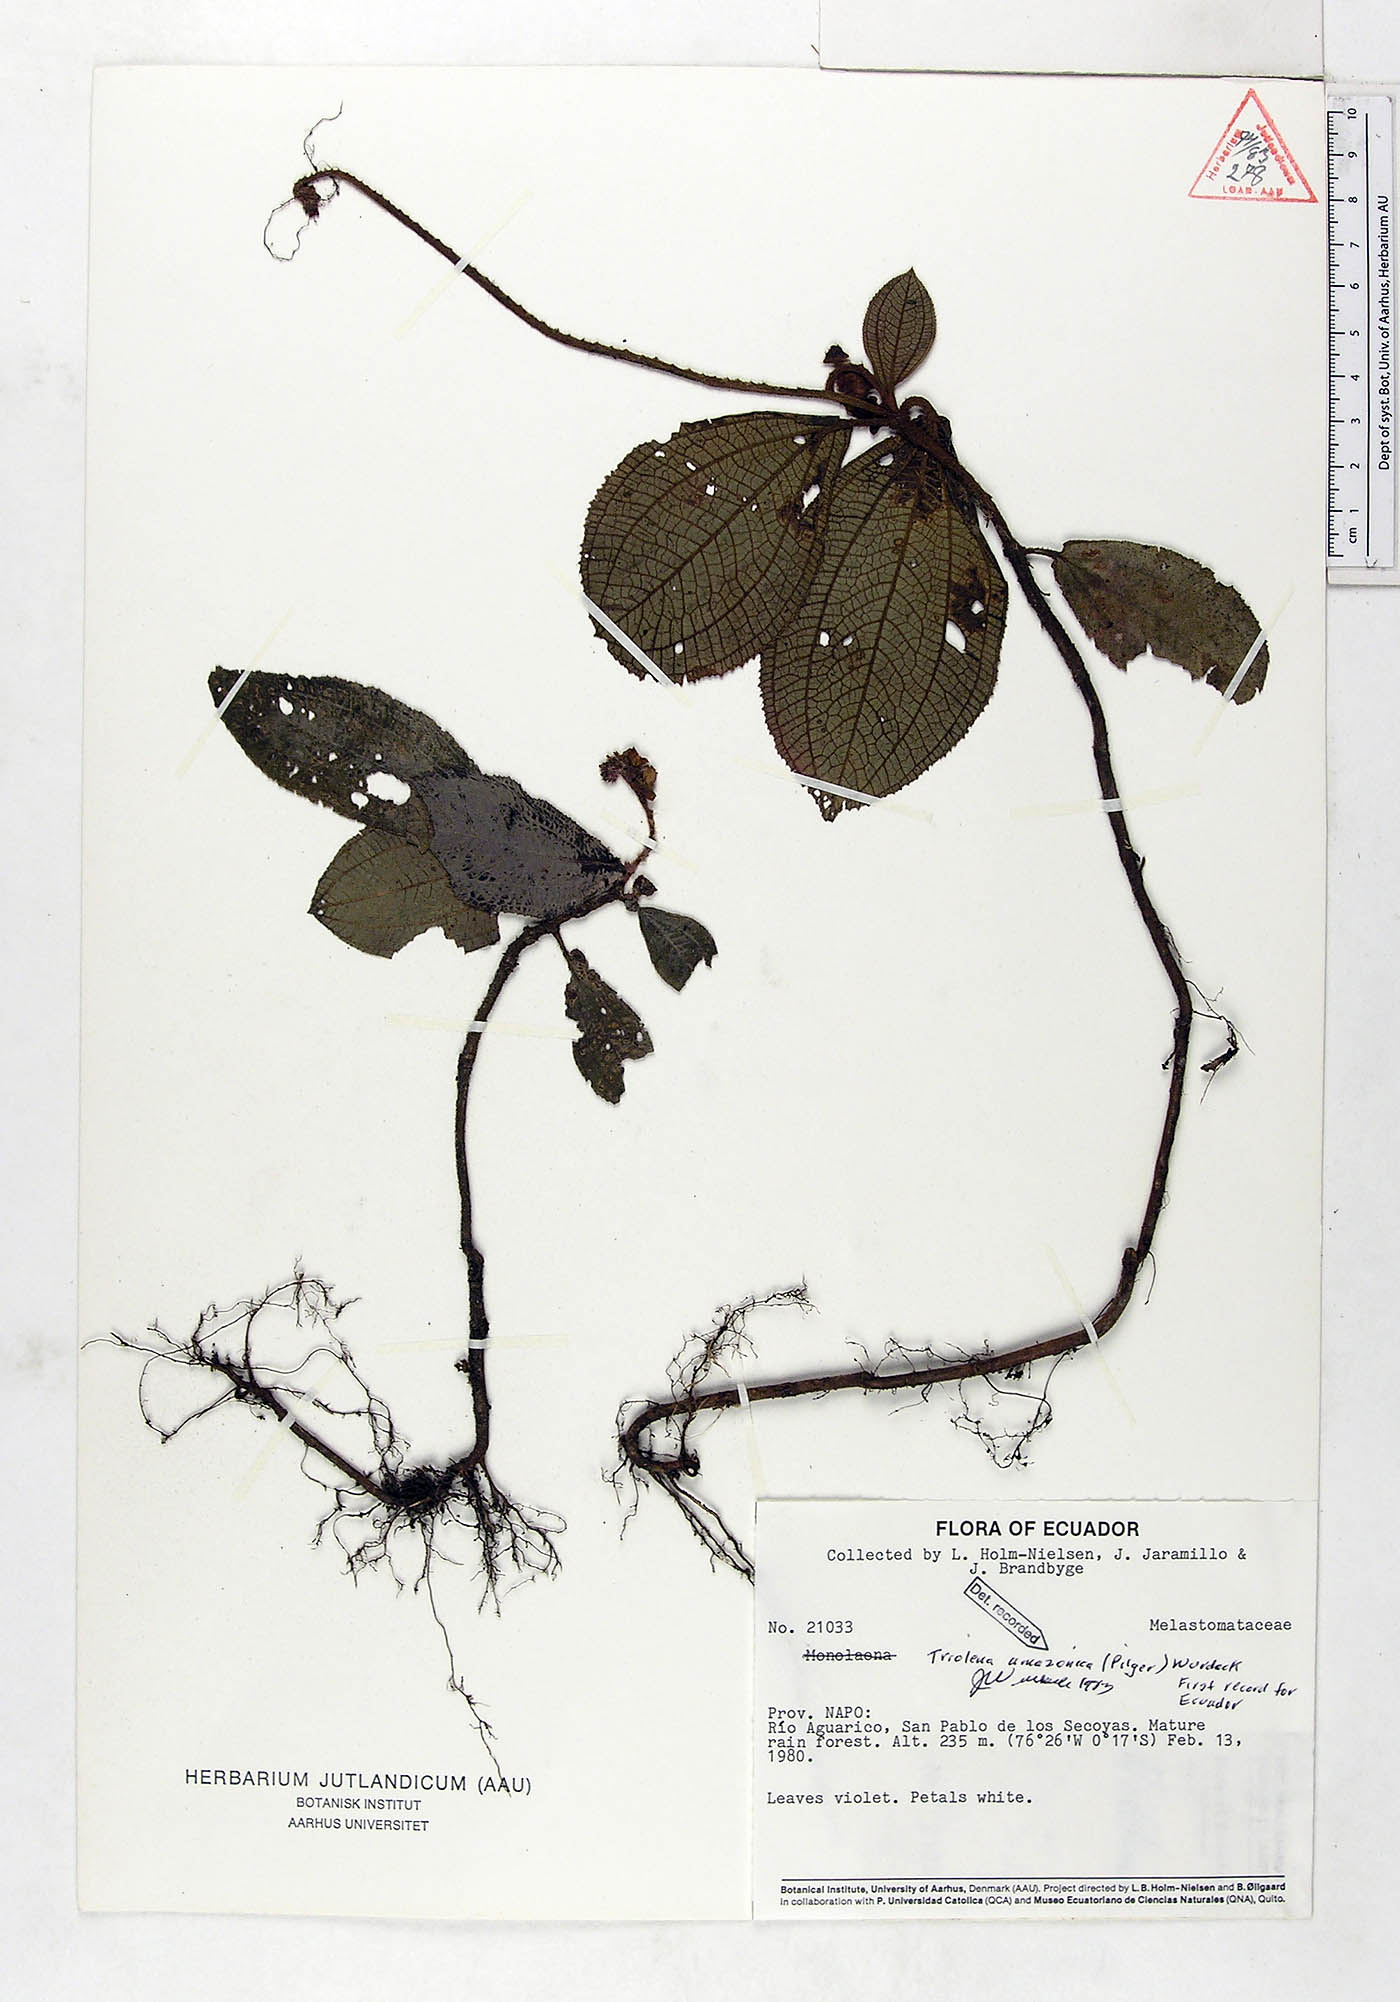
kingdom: Plantae
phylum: Tracheophyta
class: Magnoliopsida
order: Myrtales
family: Melastomataceae
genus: Triolena
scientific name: Triolena amazonica
